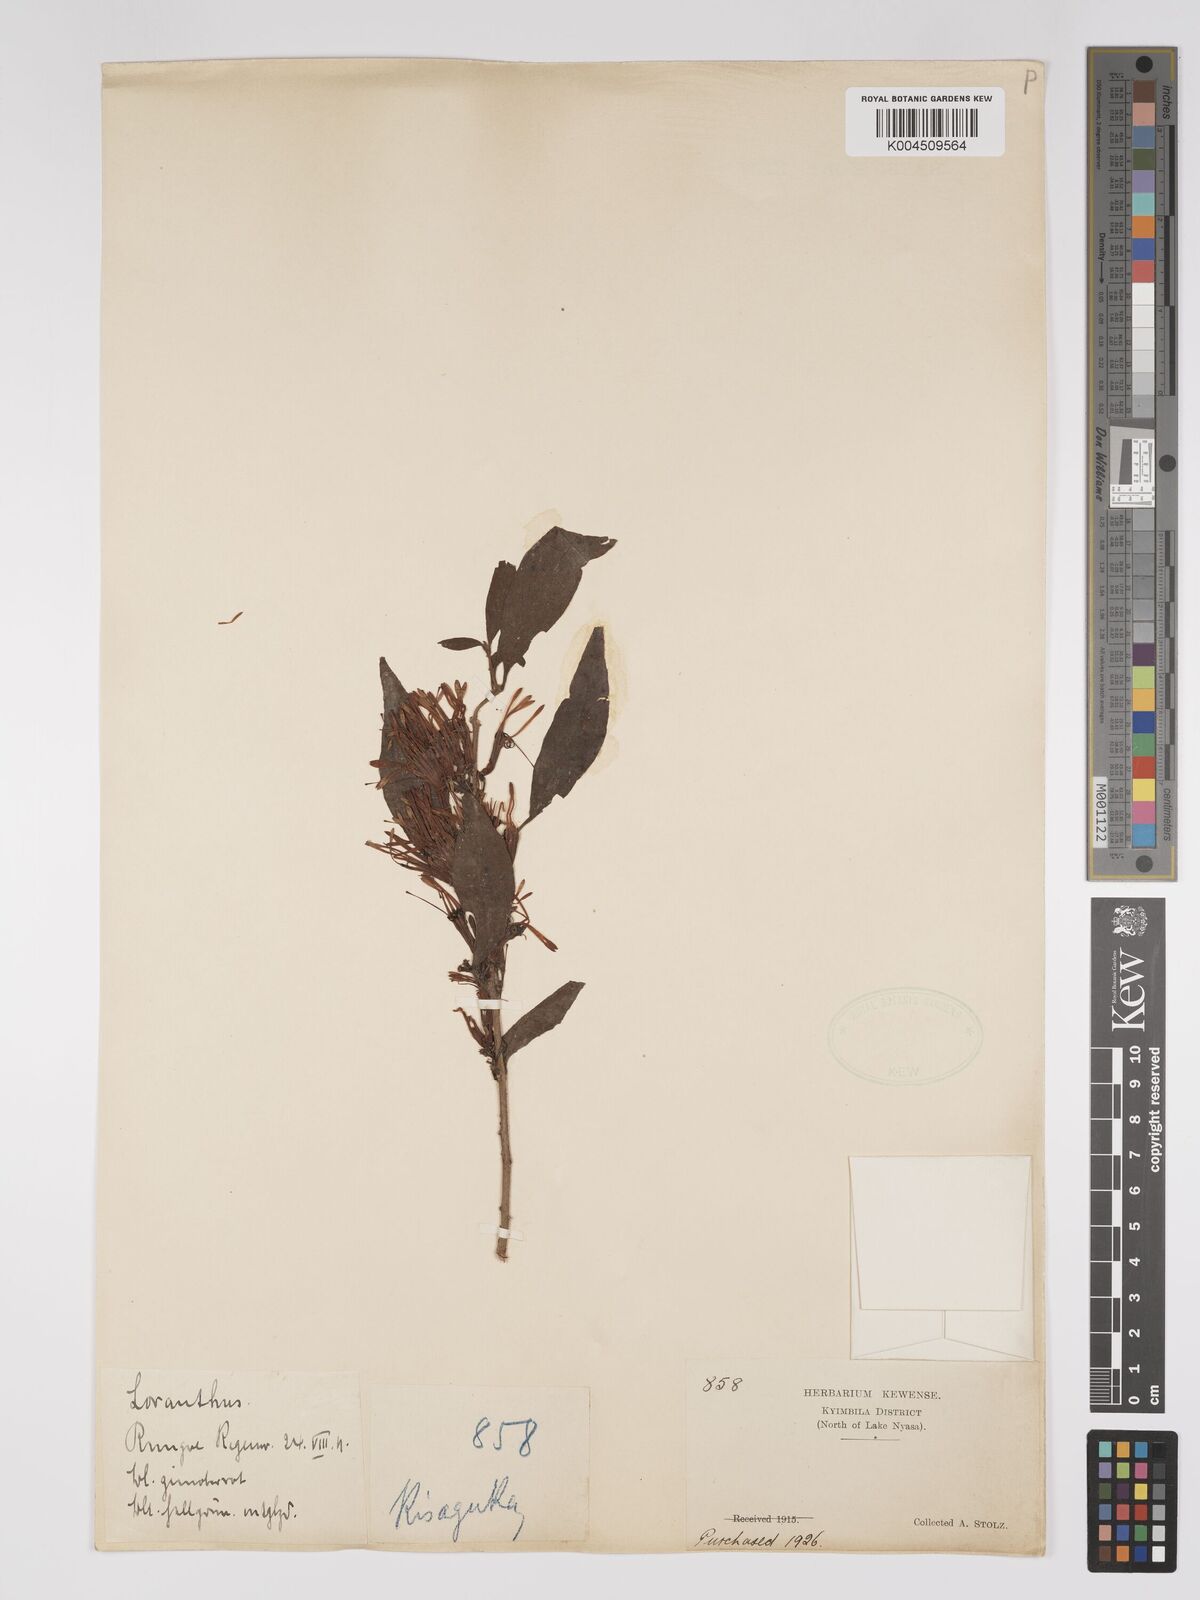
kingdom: Plantae
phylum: Tracheophyta
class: Magnoliopsida
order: Santalales
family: Loranthaceae
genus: Englerina
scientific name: Englerina inaequilatera
